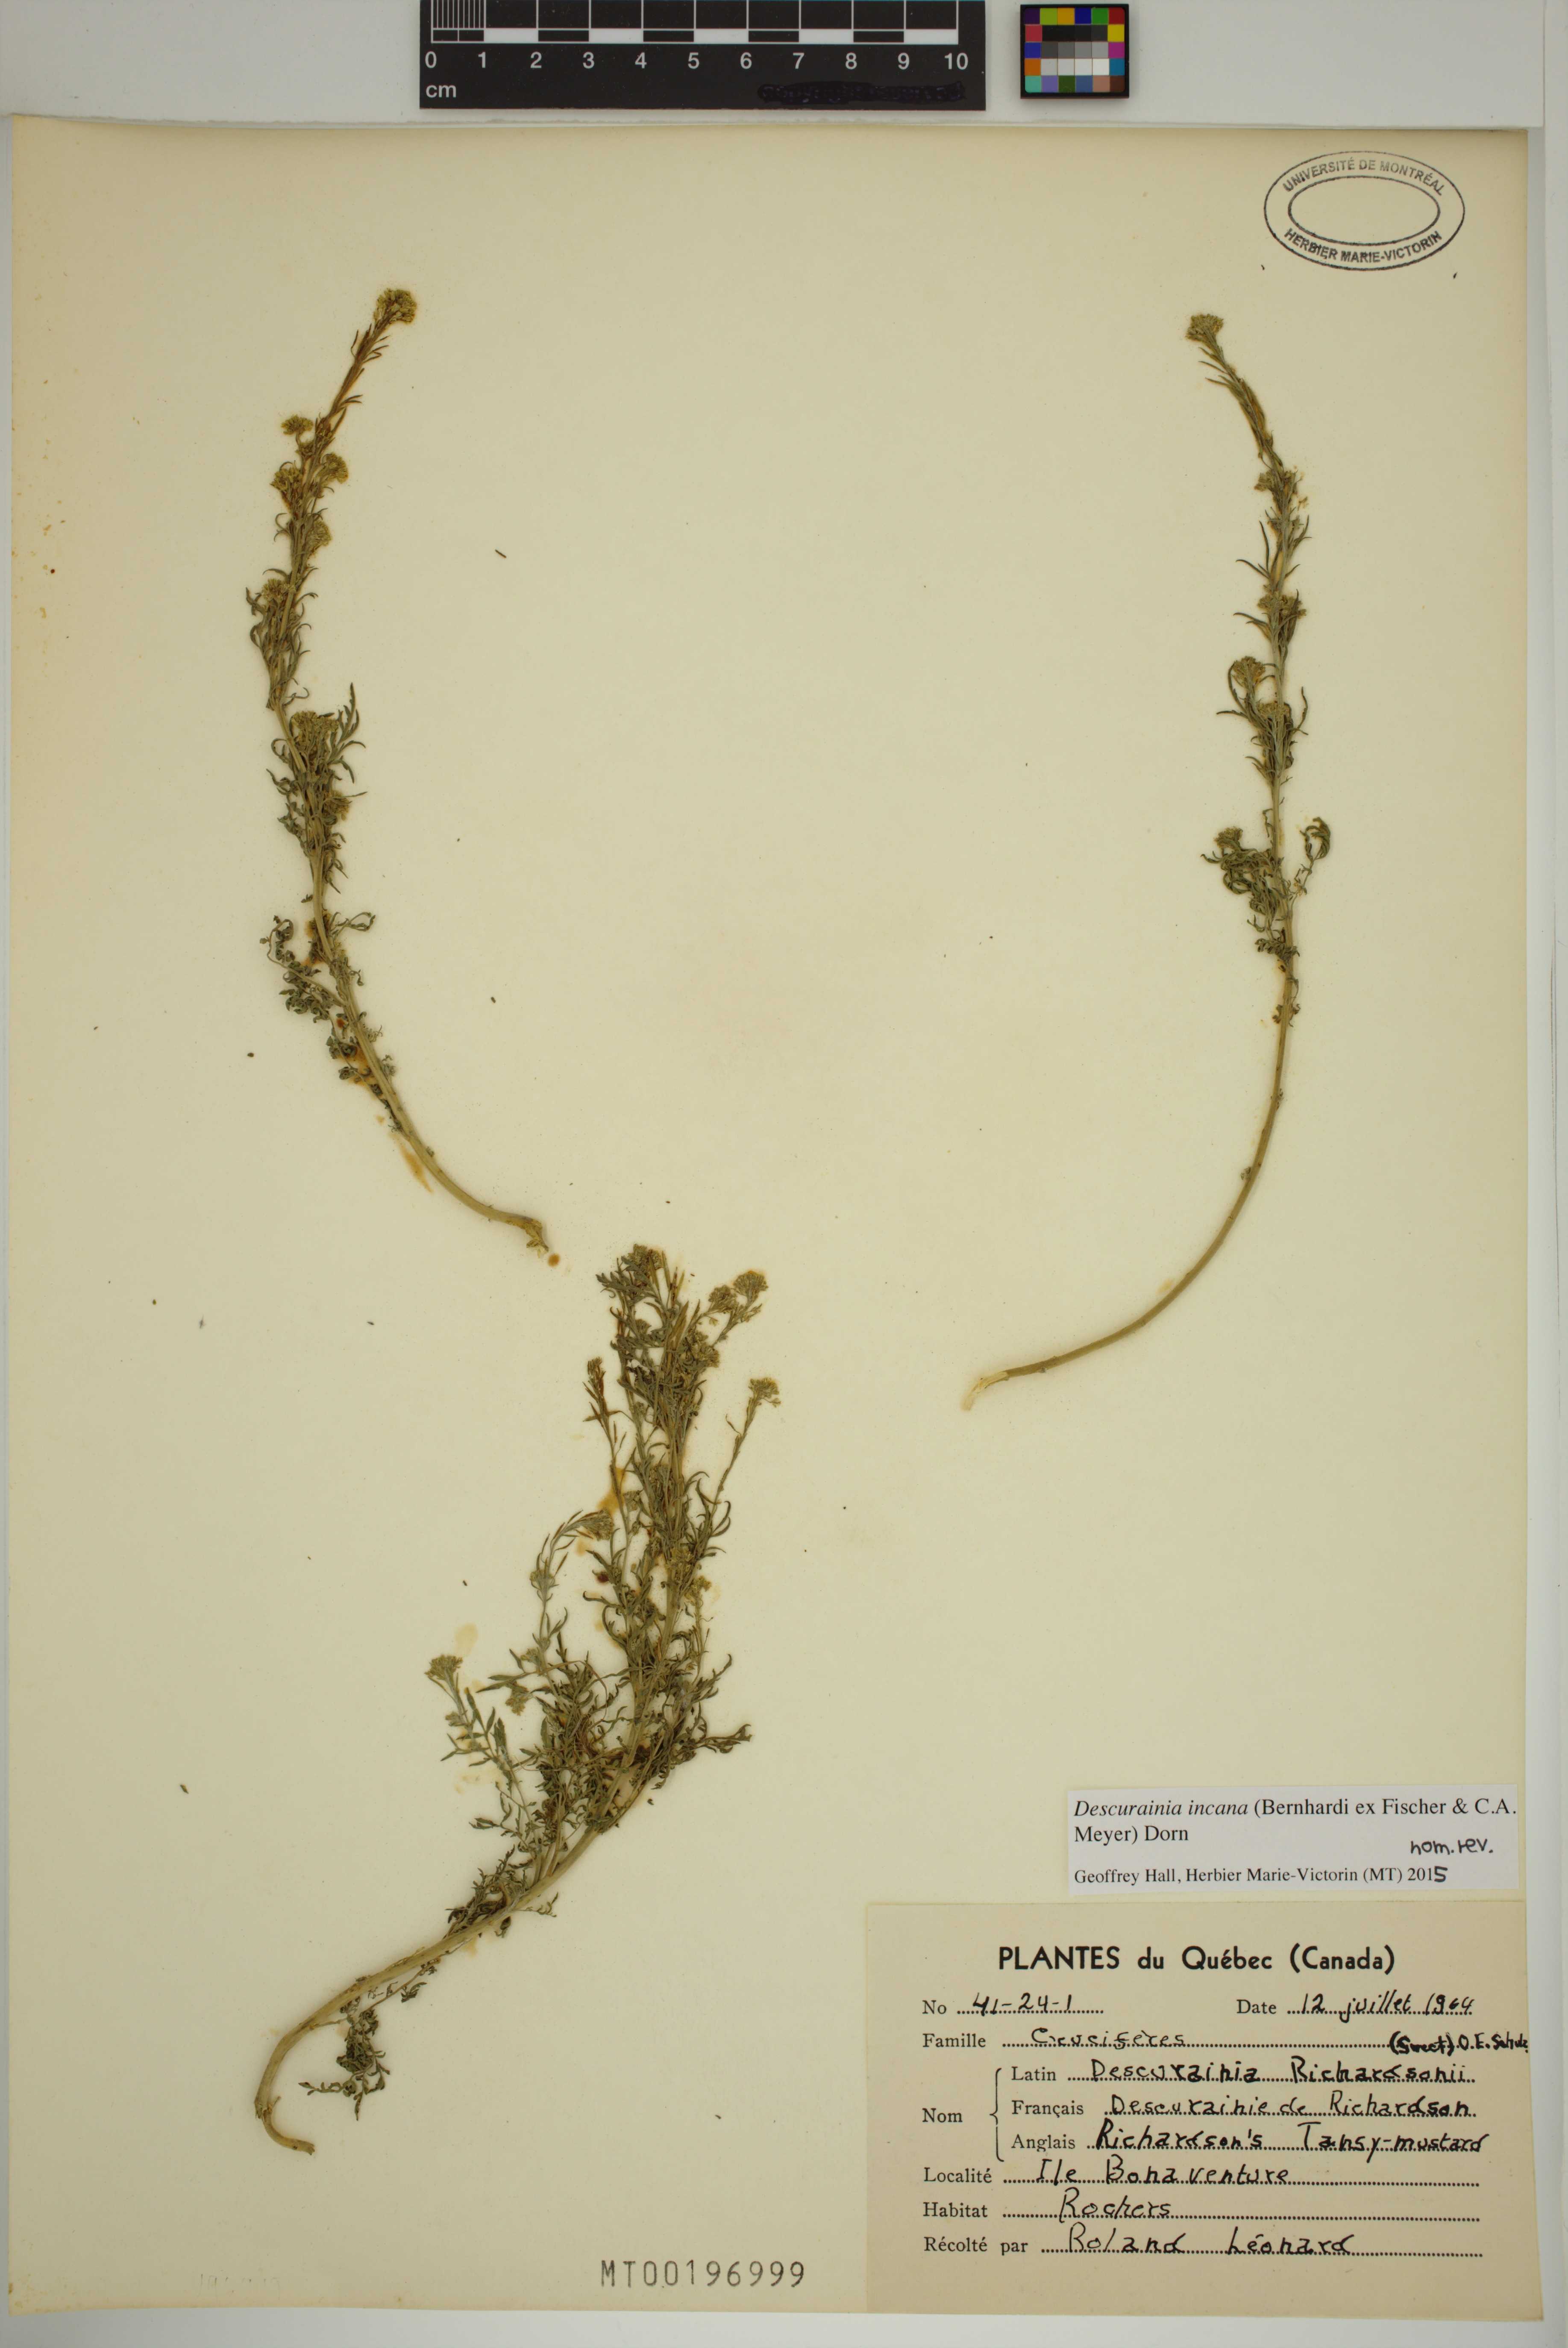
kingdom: Plantae
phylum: Tracheophyta
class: Magnoliopsida
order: Brassicales
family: Brassicaceae
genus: Descurainia
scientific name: Descurainia incana
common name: Gray tansy mustard
